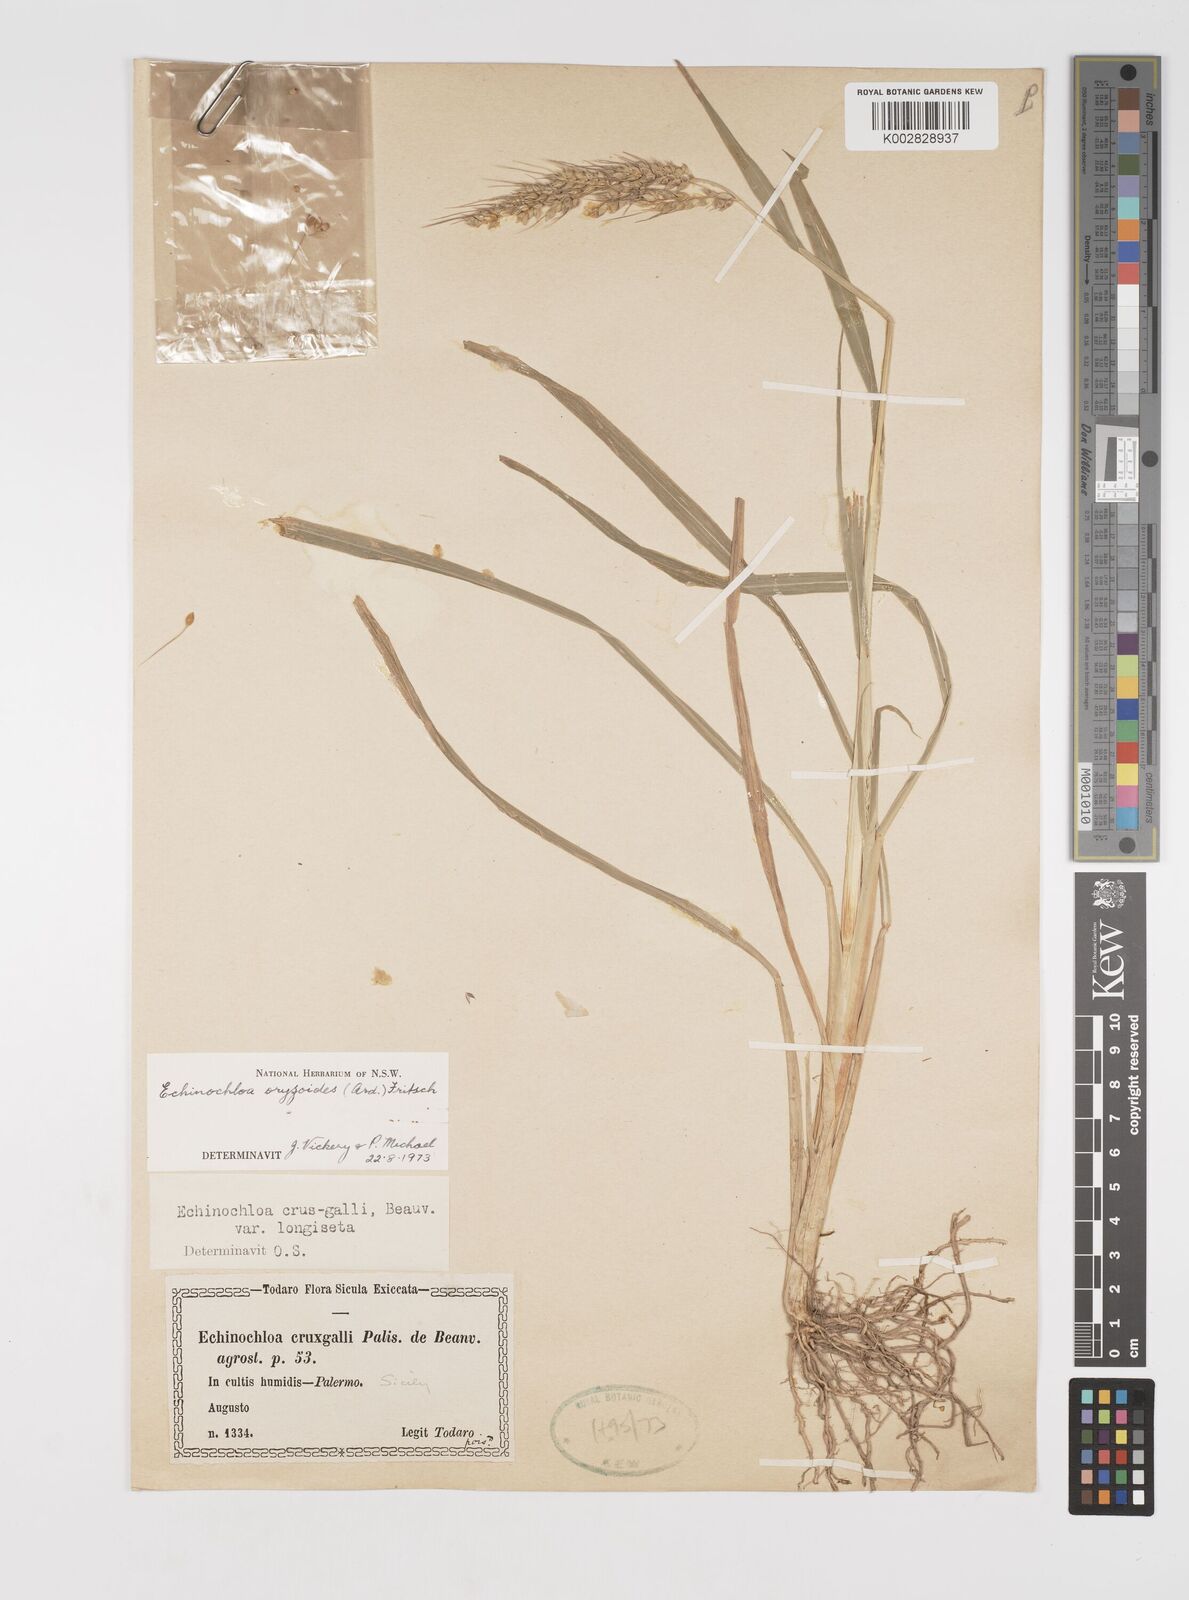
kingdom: Plantae
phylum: Tracheophyta
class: Liliopsida
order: Poales
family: Poaceae
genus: Echinochloa
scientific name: Echinochloa oryzoides
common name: Early water grass
